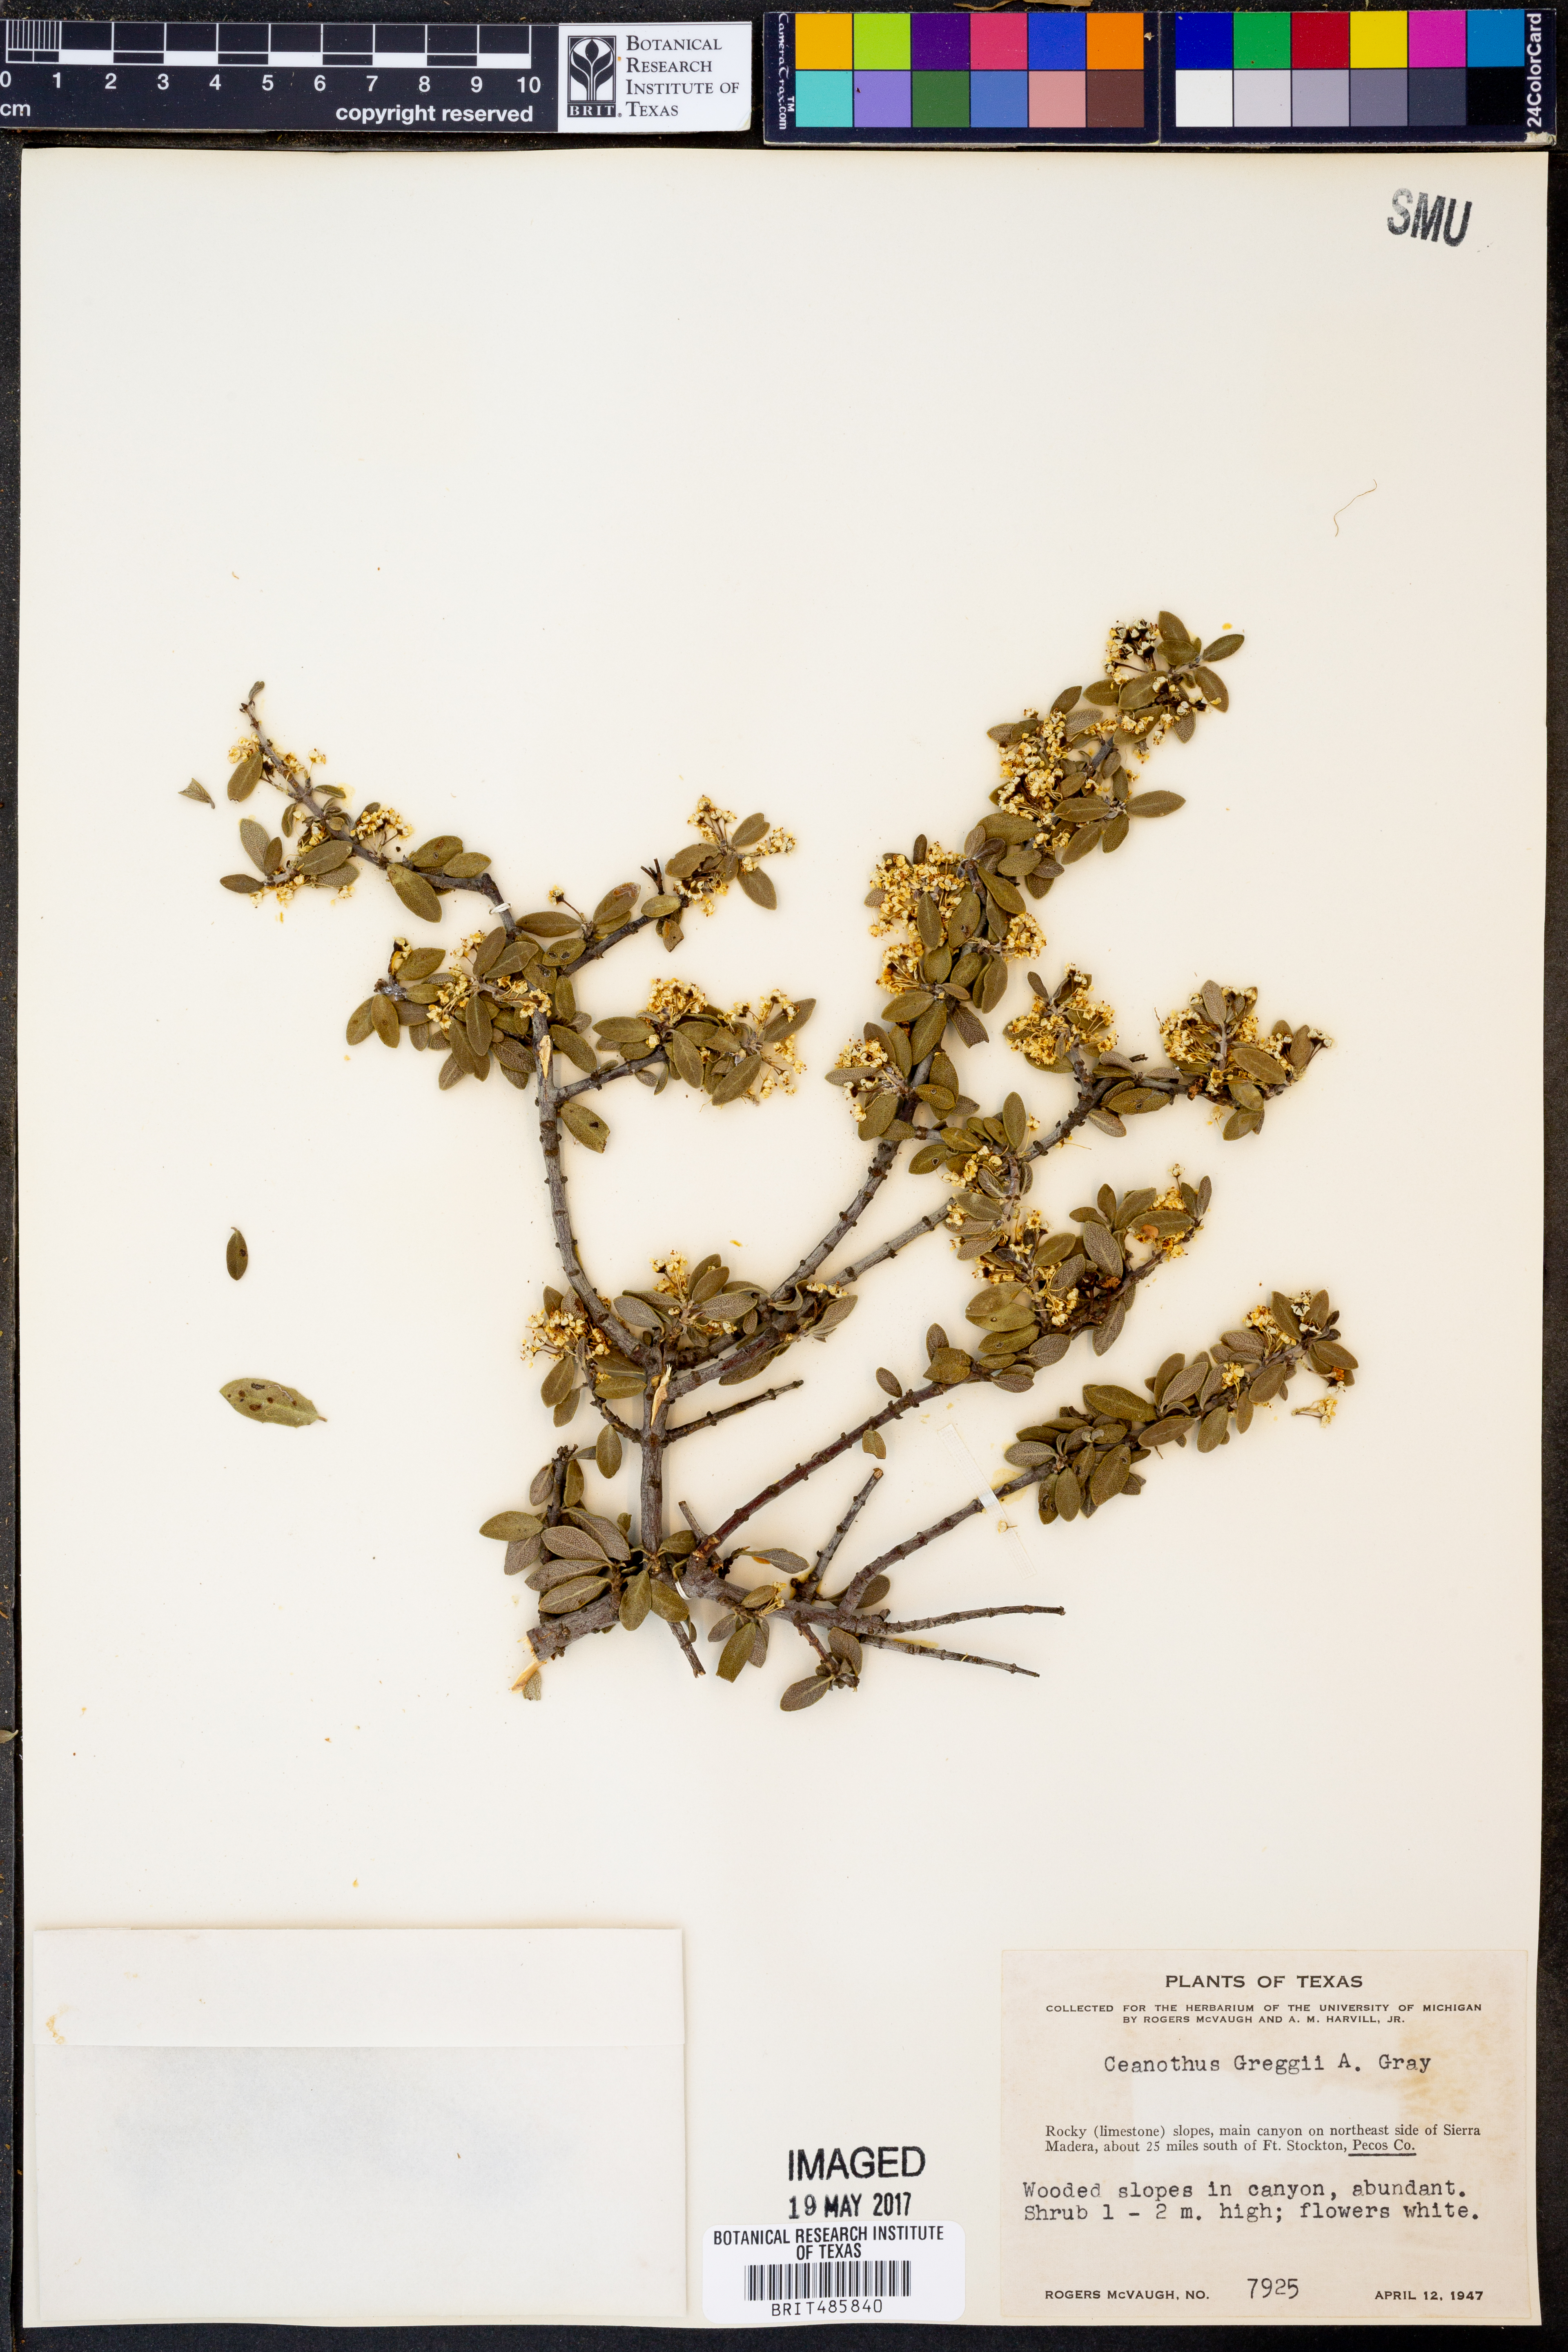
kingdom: Plantae
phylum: Tracheophyta
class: Magnoliopsida
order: Rosales
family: Rhamnaceae
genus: Ceanothus
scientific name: Ceanothus pauciflorus
